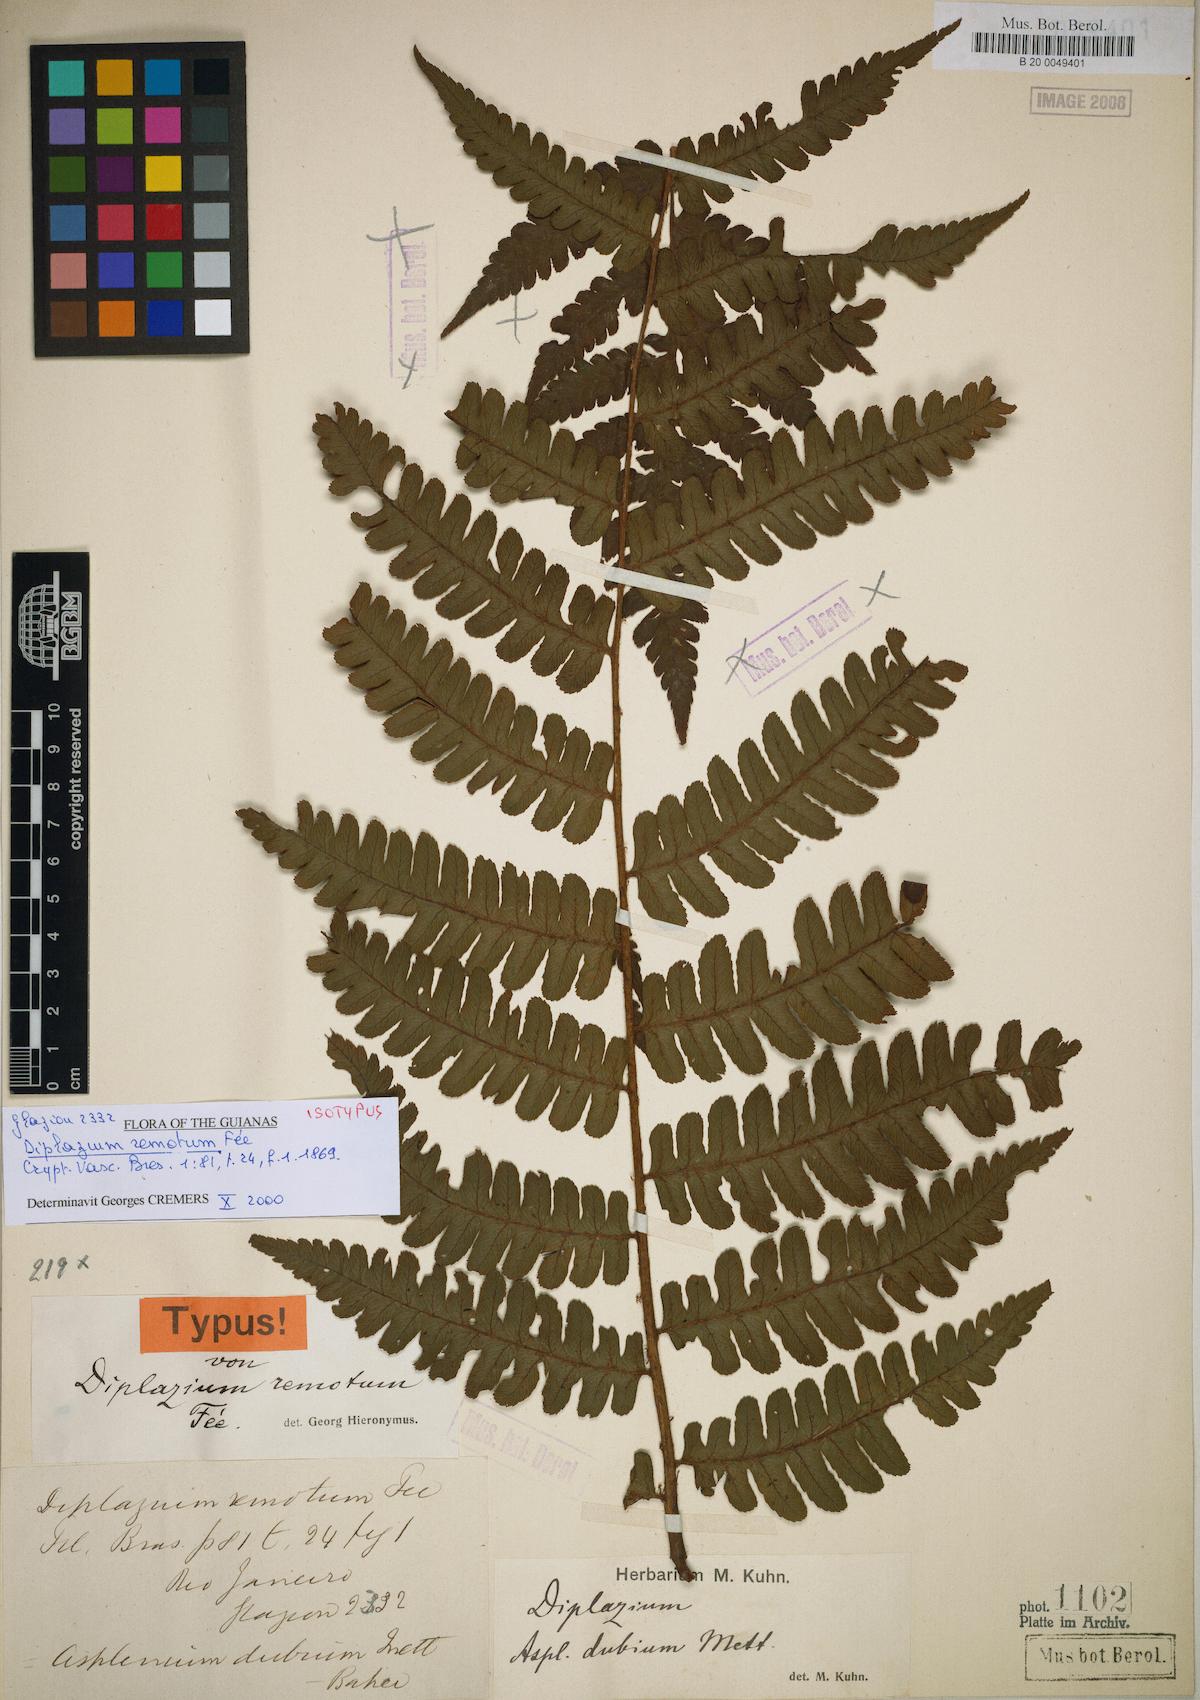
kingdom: Plantae
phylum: Tracheophyta
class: Polypodiopsida
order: Polypodiales
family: Athyriaceae
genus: Diplazium
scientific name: Diplazium rostratum
